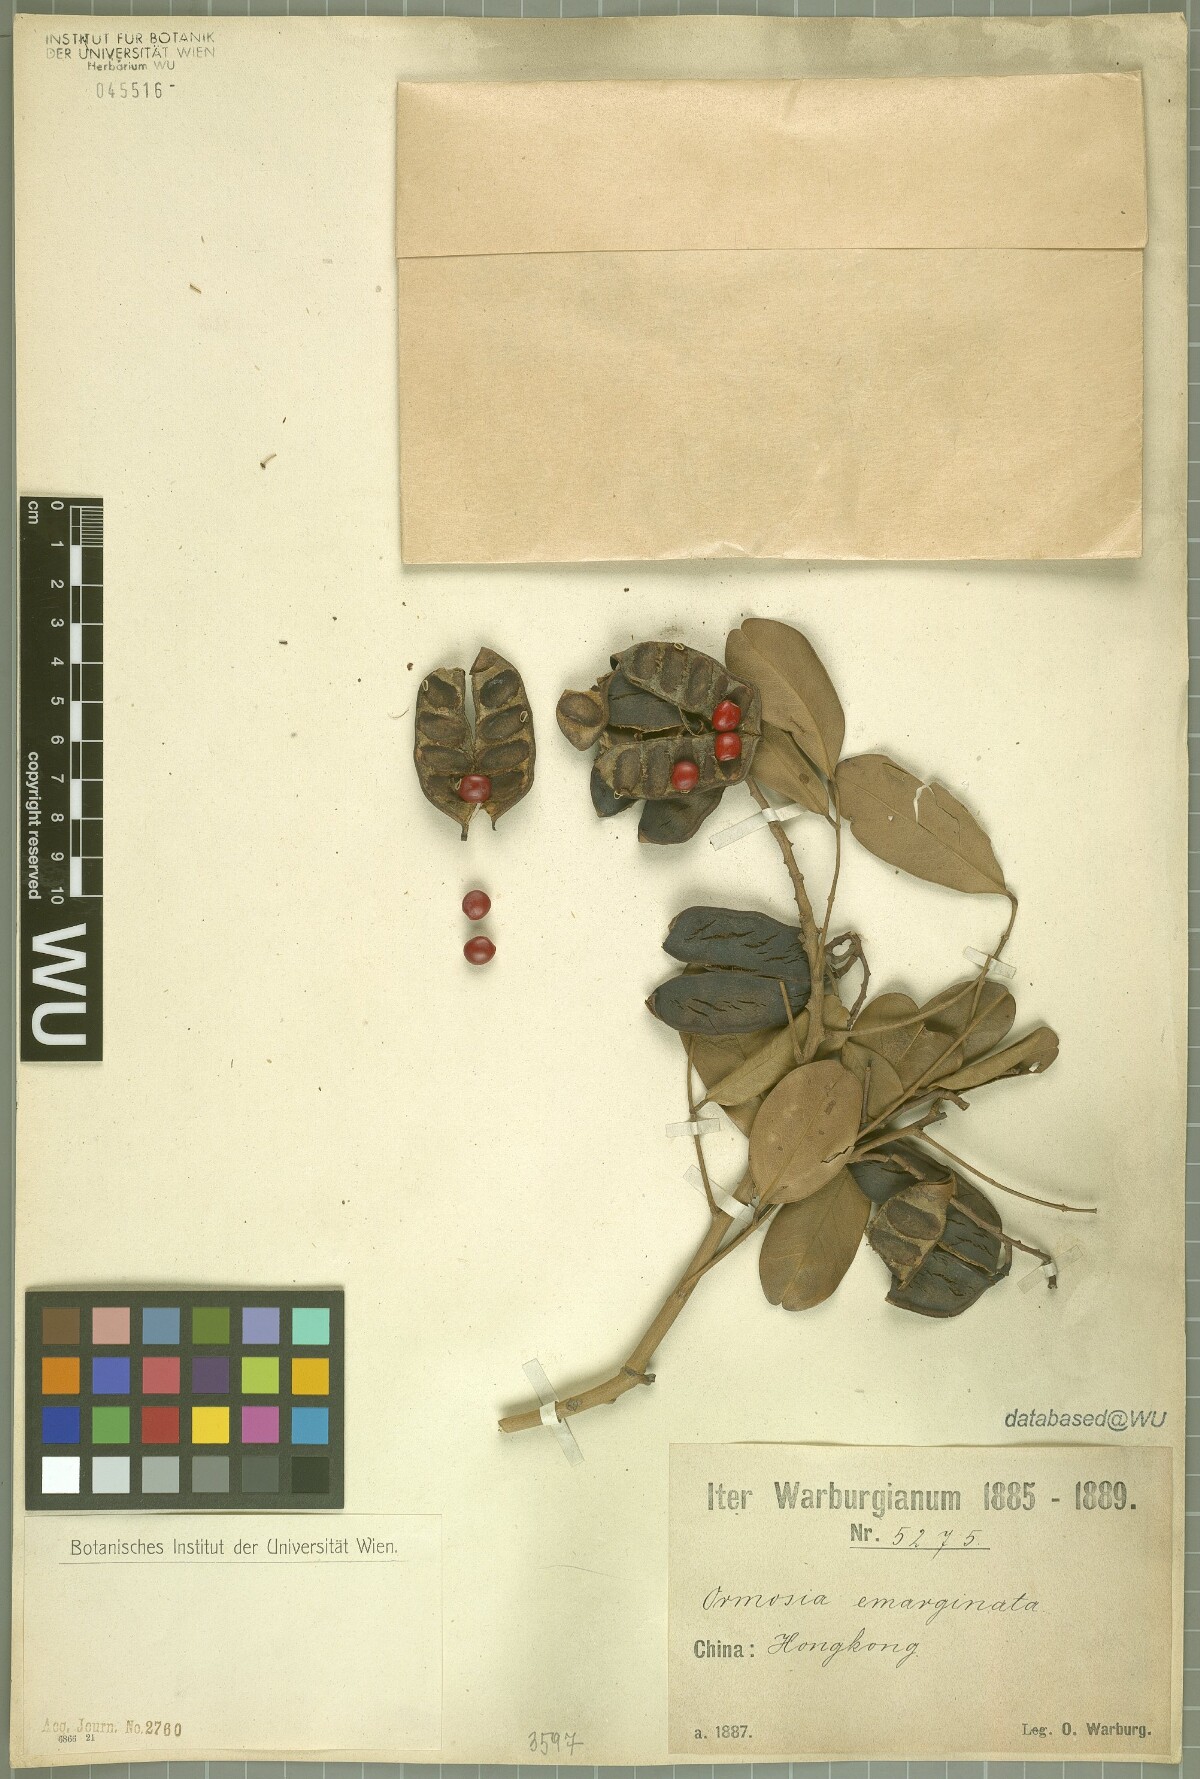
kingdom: Plantae
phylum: Tracheophyta
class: Magnoliopsida
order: Fabales
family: Fabaceae
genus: Ormosia
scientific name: Ormosia emarginata
